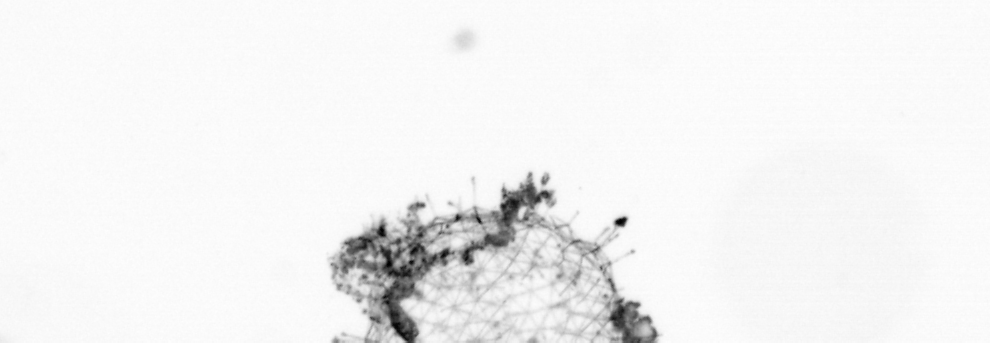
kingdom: Animalia
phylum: Chordata
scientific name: Chordata
